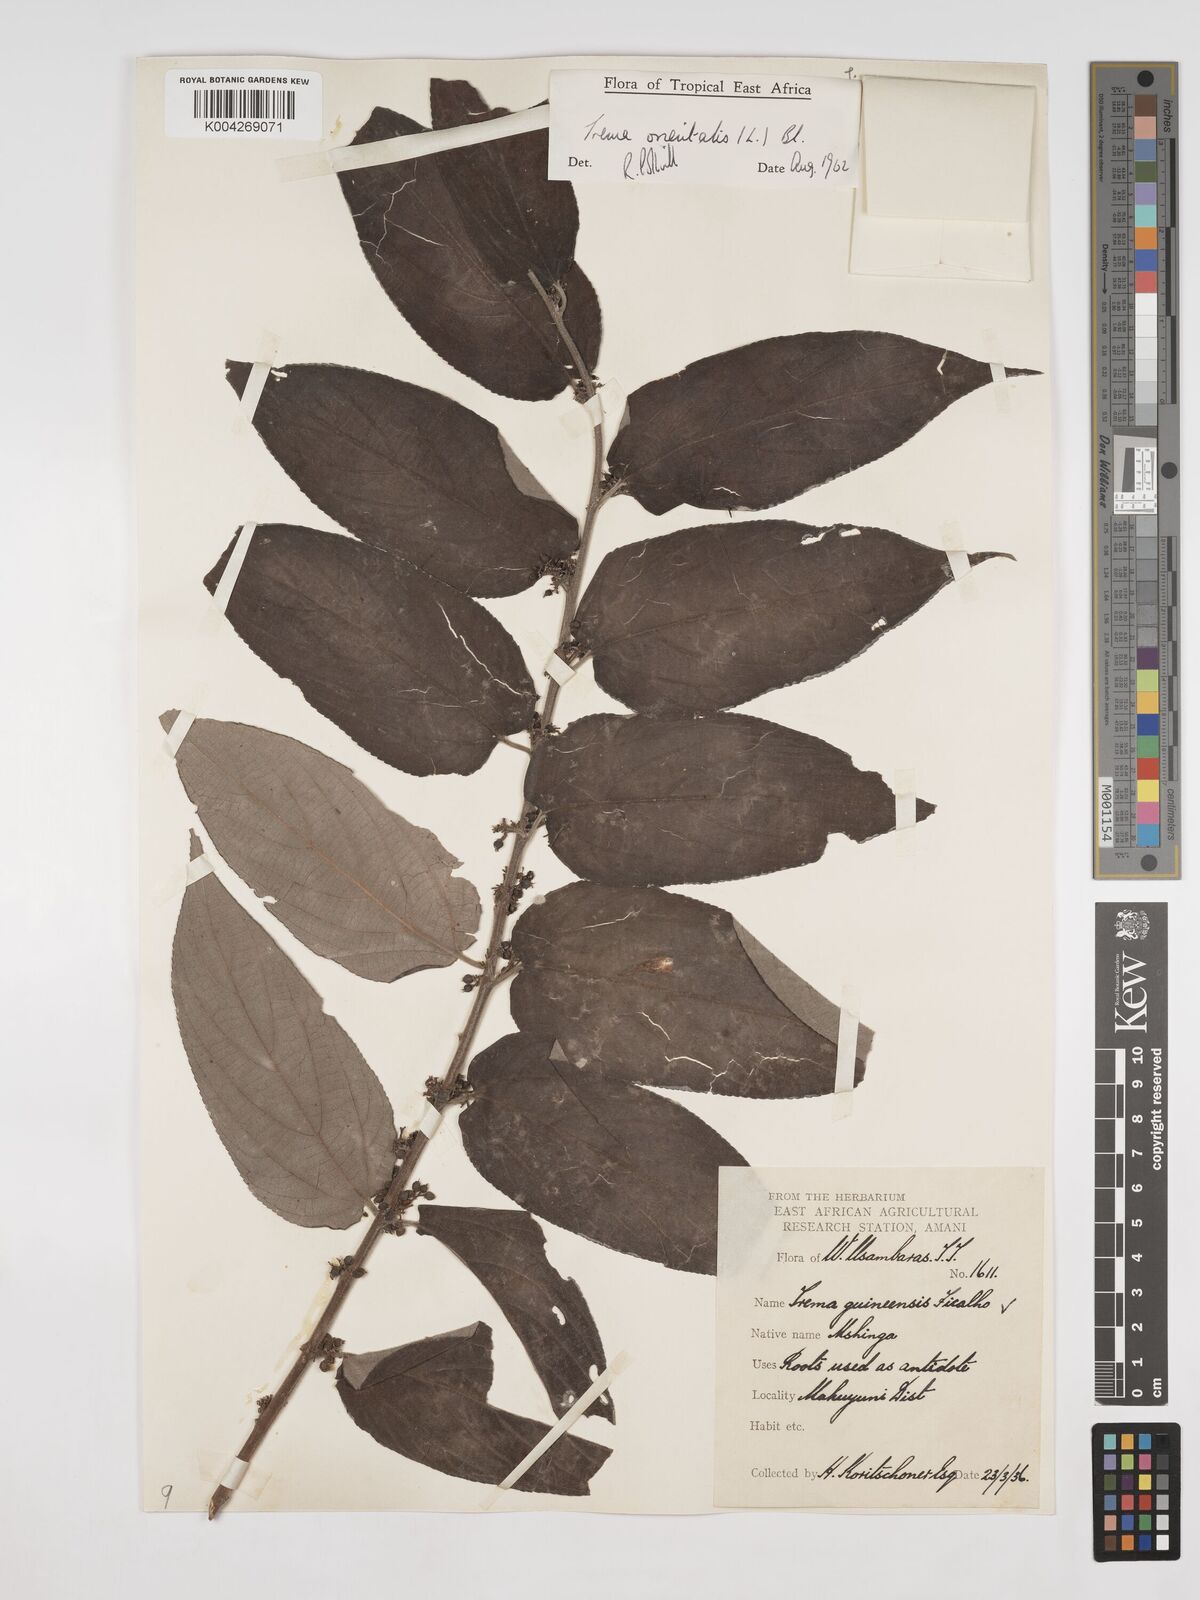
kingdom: Plantae
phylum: Tracheophyta
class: Magnoliopsida
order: Rosales
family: Cannabaceae
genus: Trema
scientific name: Trema orientale
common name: Indian charcoal tree
